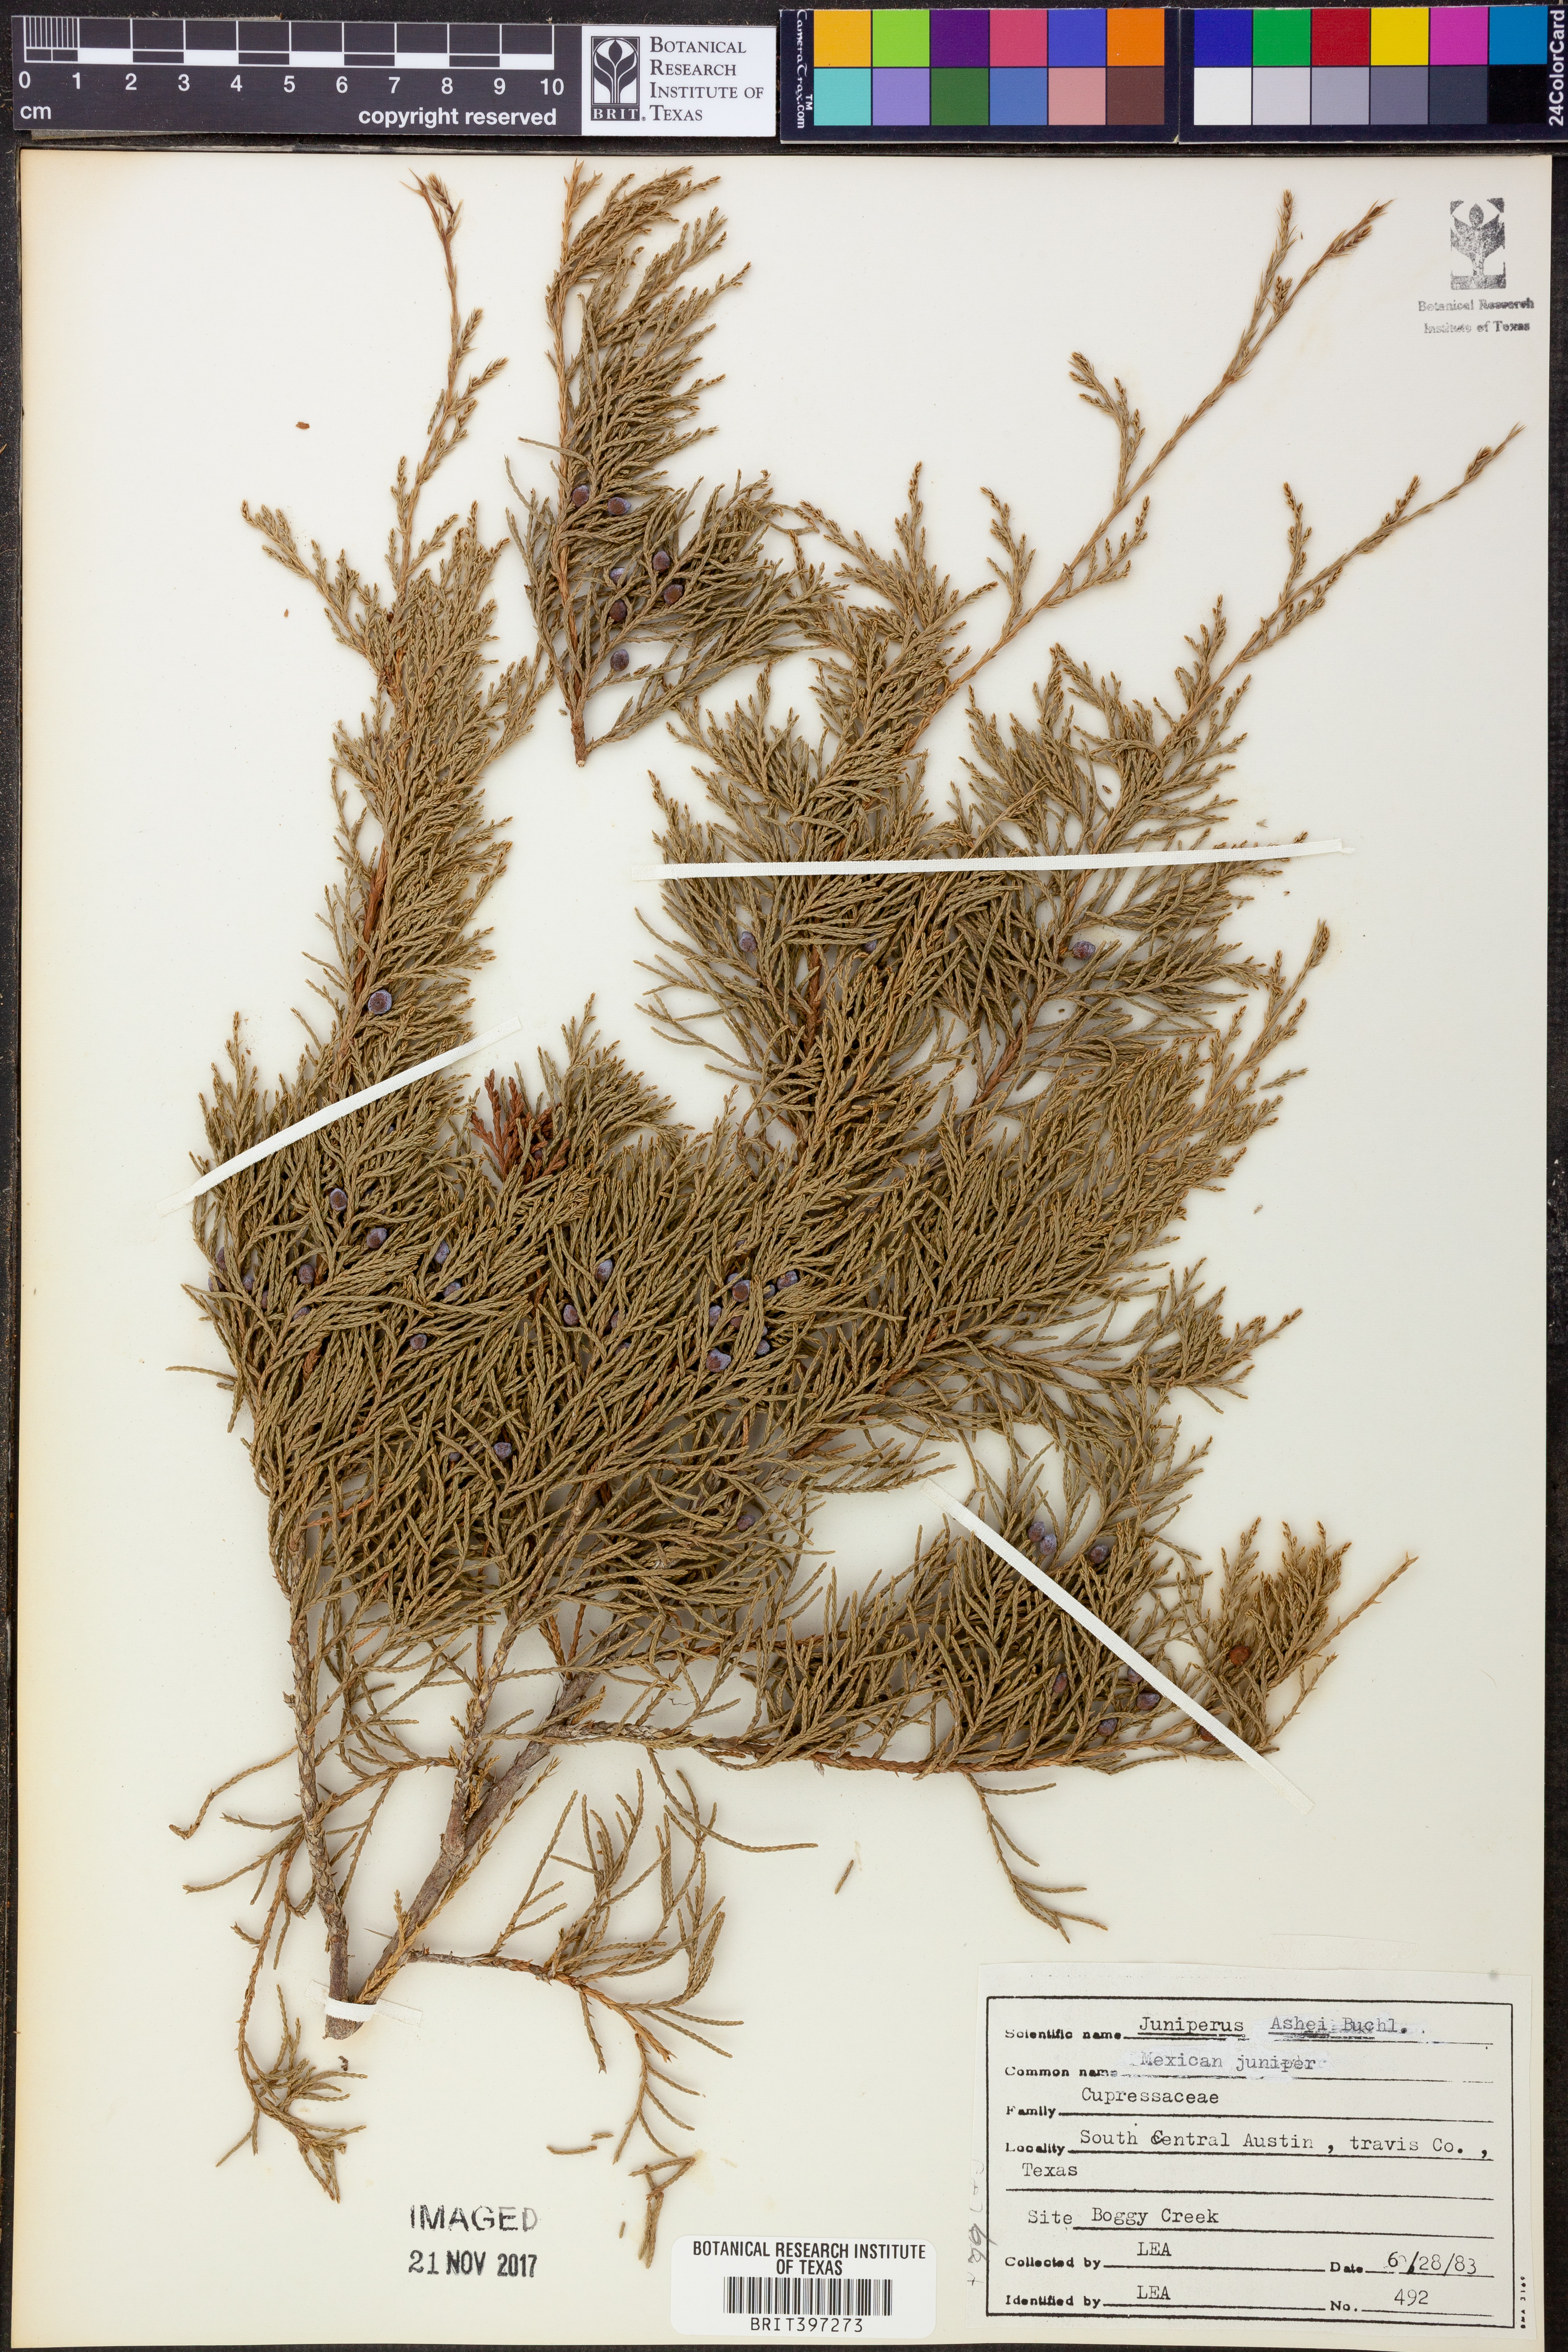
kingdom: Plantae
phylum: Tracheophyta
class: Pinopsida
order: Pinales
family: Cupressaceae
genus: Juniperus
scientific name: Juniperus ashei
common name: Mexican juniper
